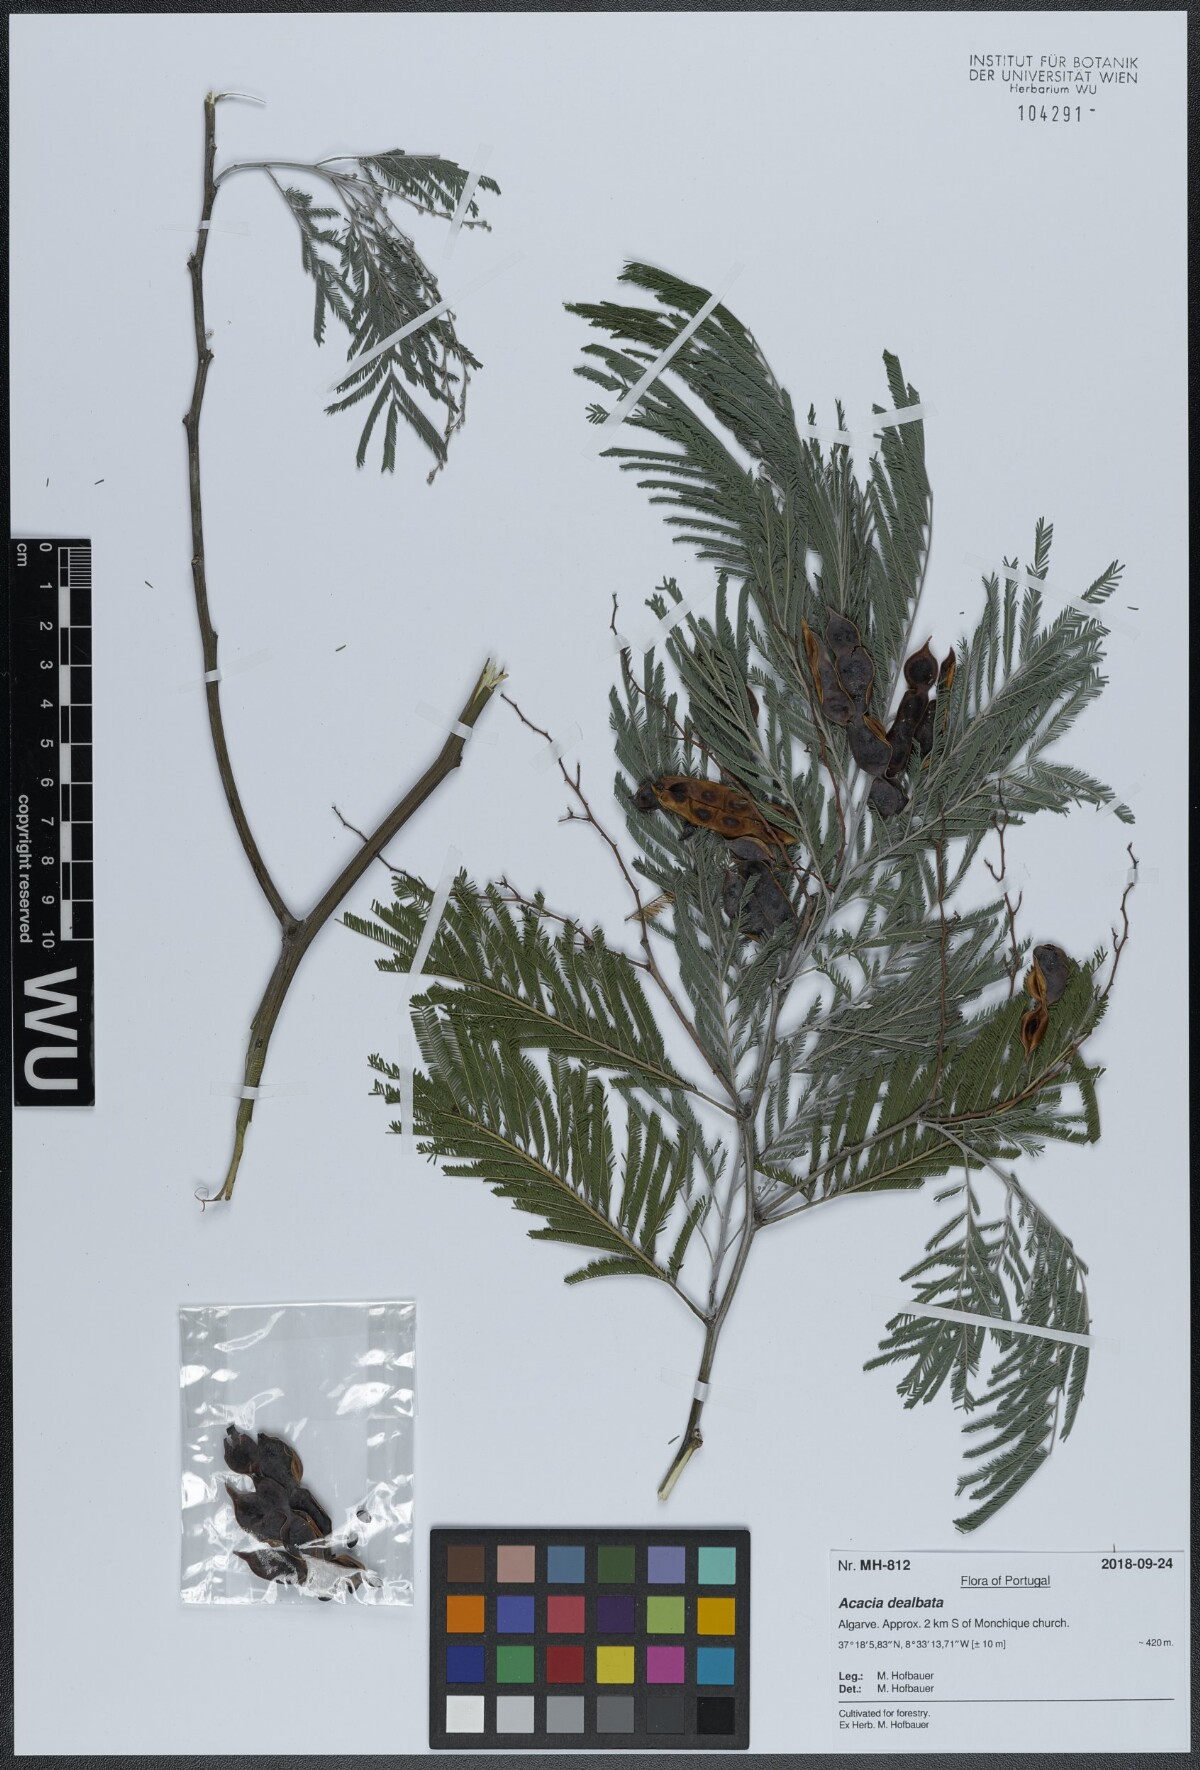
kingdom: Plantae
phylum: Tracheophyta
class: Magnoliopsida
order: Fabales
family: Fabaceae
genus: Acacia
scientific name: Acacia dealbata
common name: Silver wattle
